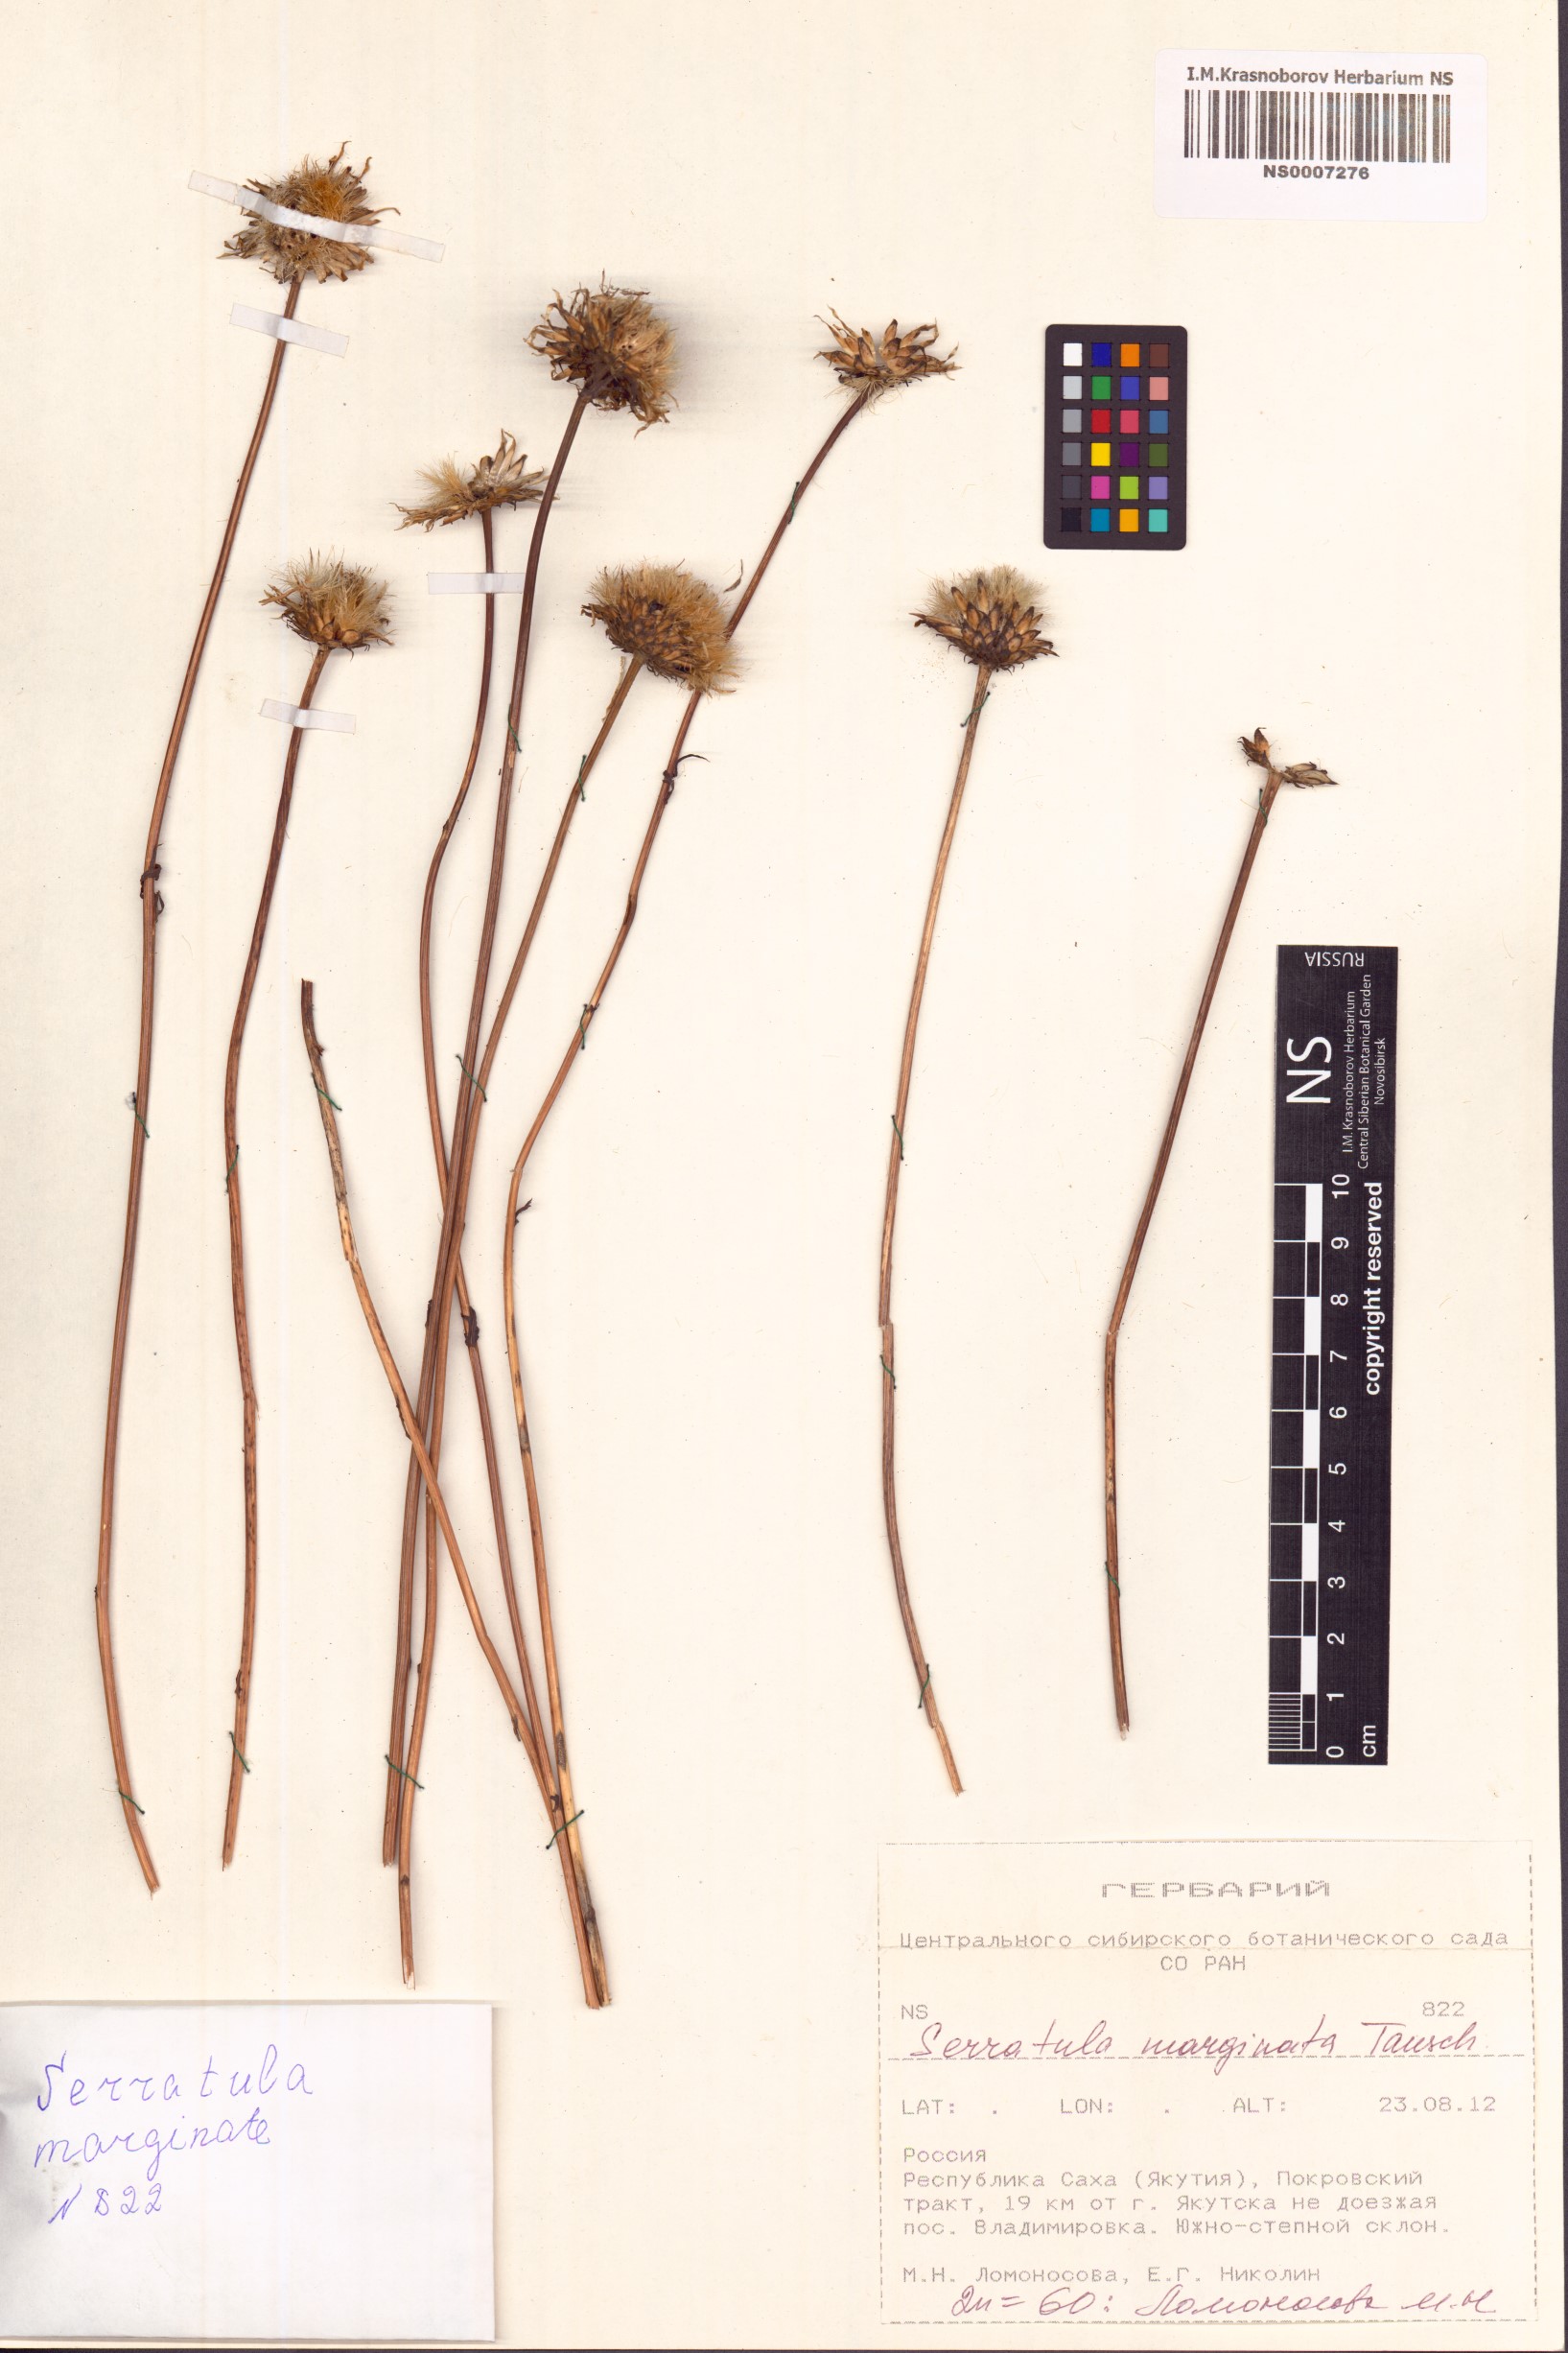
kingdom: Plantae
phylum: Tracheophyta
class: Magnoliopsida
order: Asterales
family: Asteraceae
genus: Klasea
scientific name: Klasea marginata
